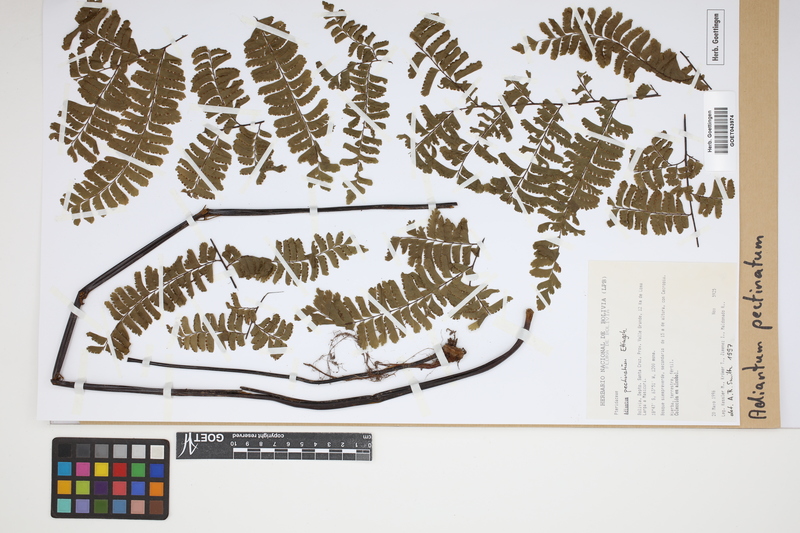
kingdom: Plantae
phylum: Tracheophyta
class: Polypodiopsida
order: Polypodiales
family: Pteridaceae
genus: Adiantum
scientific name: Adiantum pectinatum
